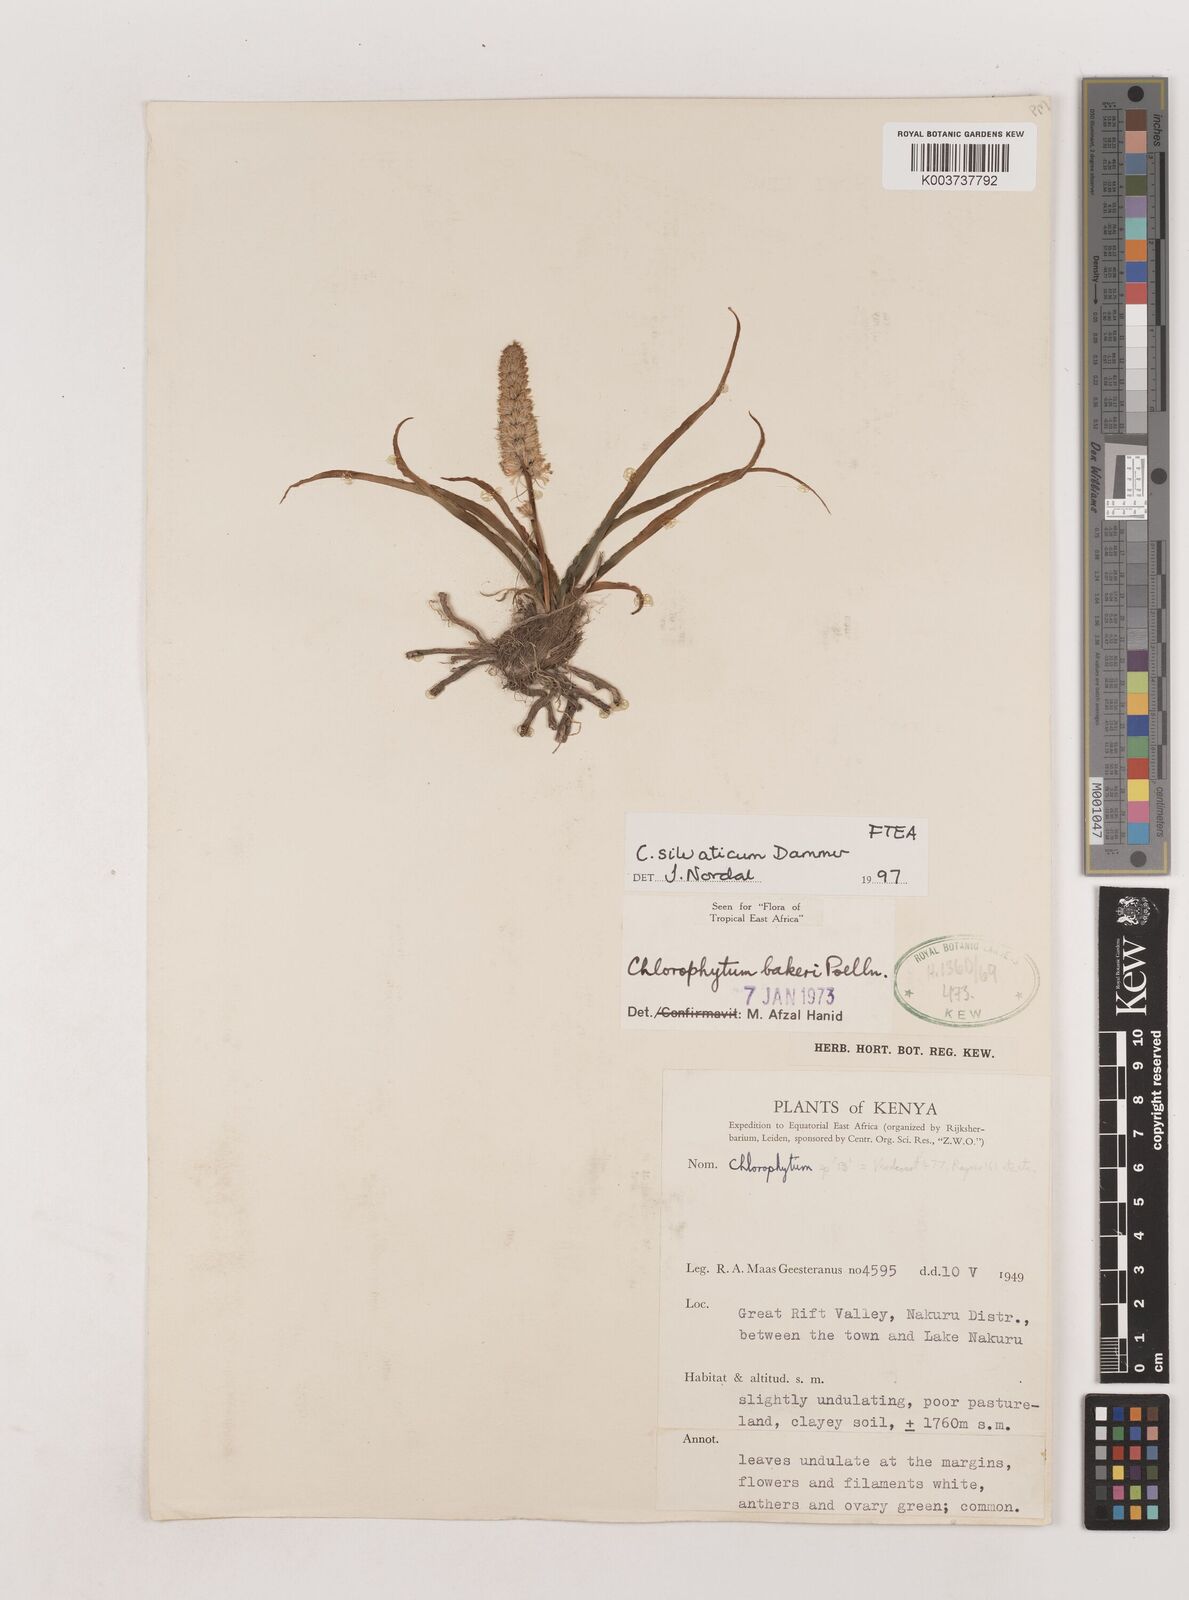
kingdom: Plantae
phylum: Tracheophyta
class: Liliopsida
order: Asparagales
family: Asparagaceae
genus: Chlorophytum
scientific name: Chlorophytum africanum
